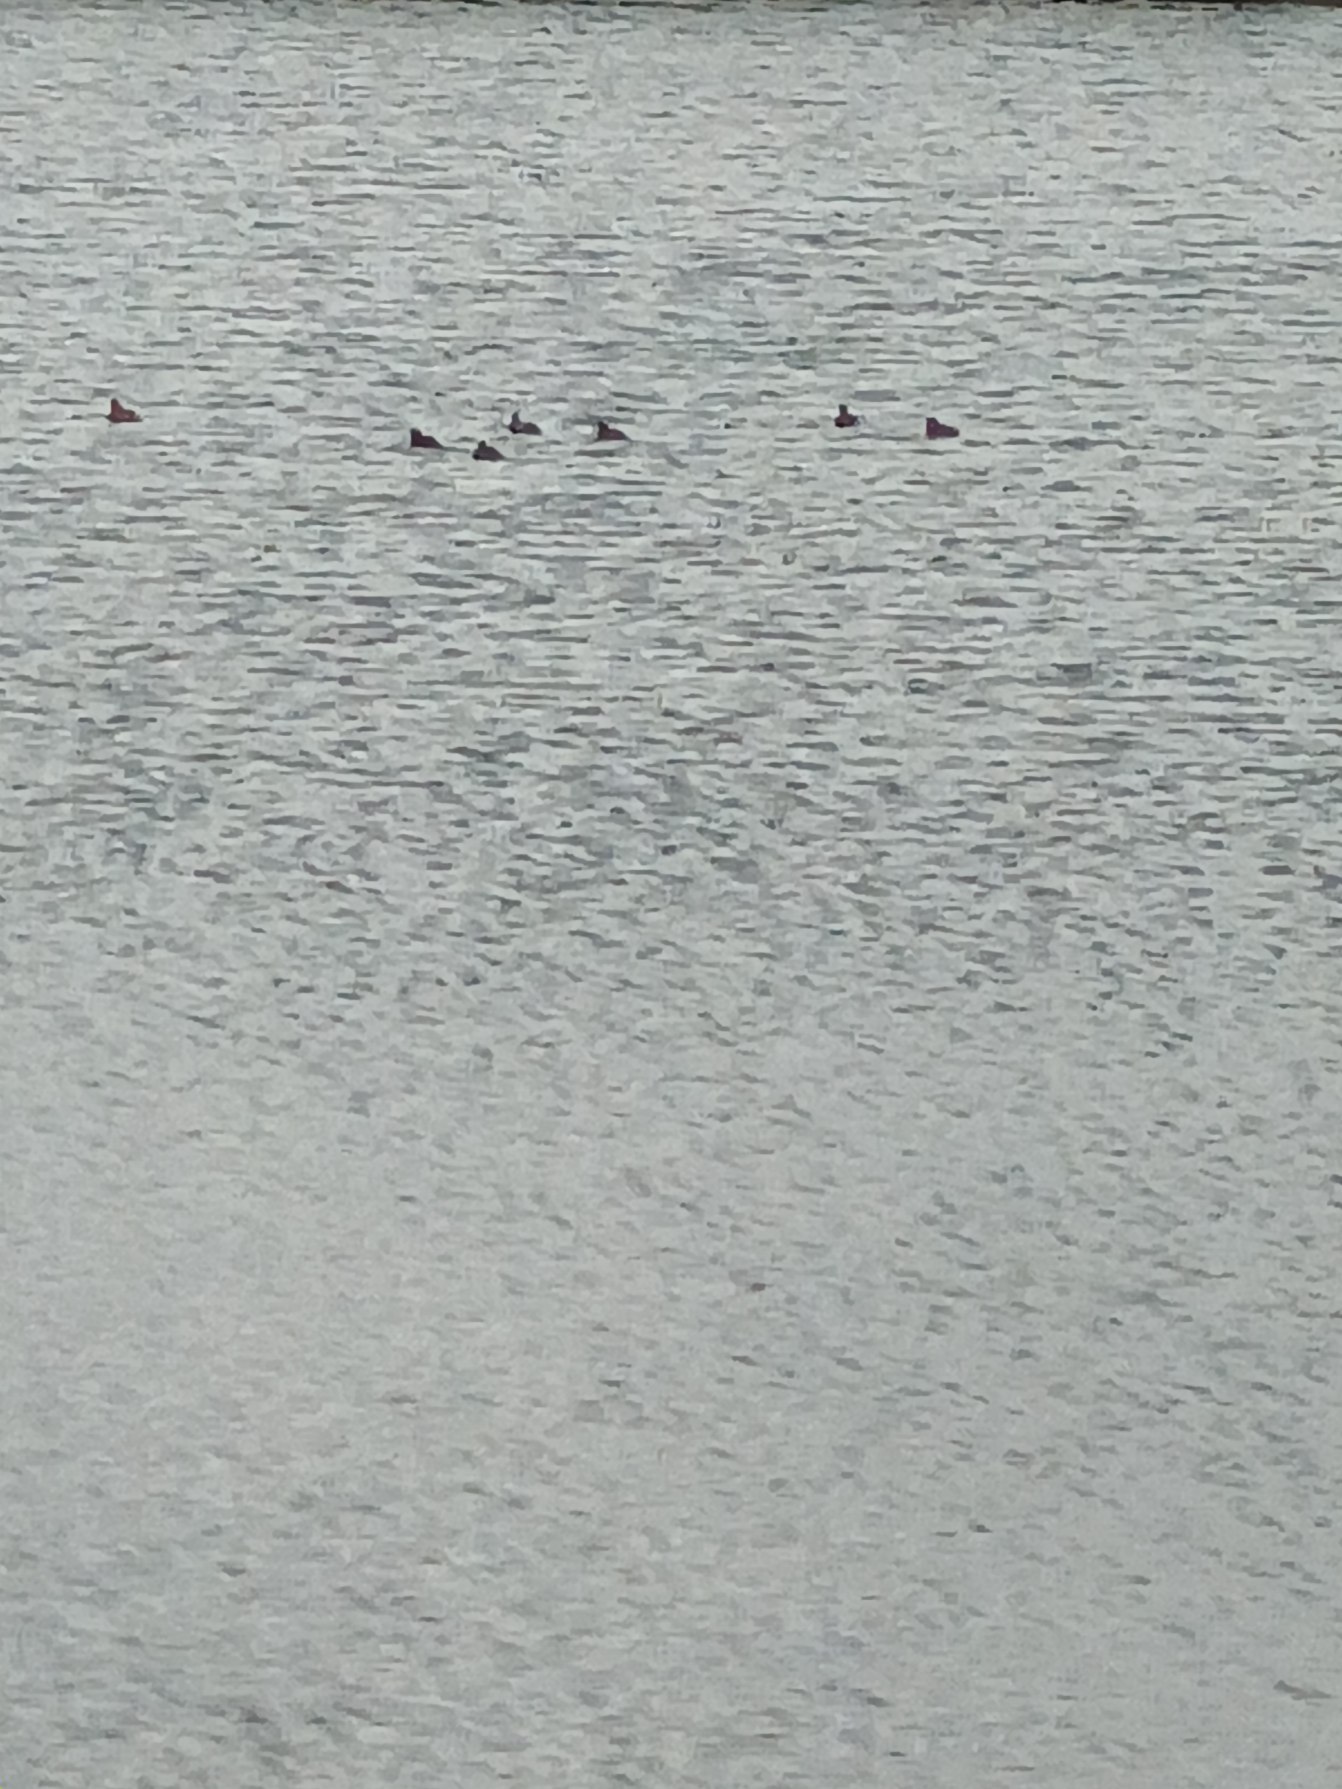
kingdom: Animalia
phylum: Chordata
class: Aves
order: Podicipediformes
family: Podicipedidae
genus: Tachybaptus
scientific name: Tachybaptus ruficollis
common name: Lille lappedykker
